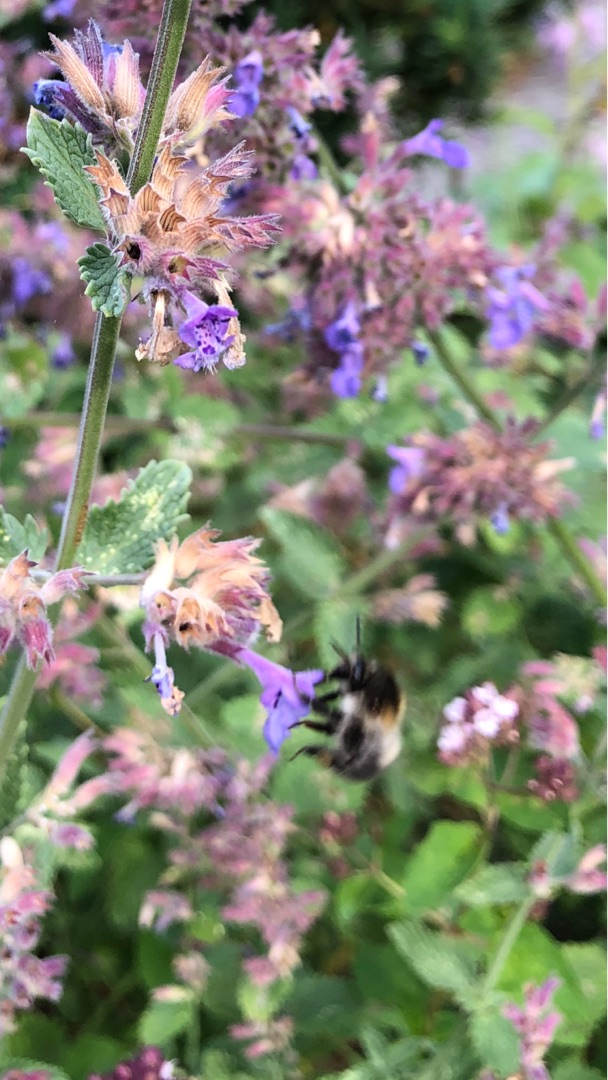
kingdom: Plantae
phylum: Tracheophyta
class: Magnoliopsida
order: Lamiales
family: Lamiaceae
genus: Nepeta
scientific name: Nepeta racemosa
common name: Ægte blåkant
